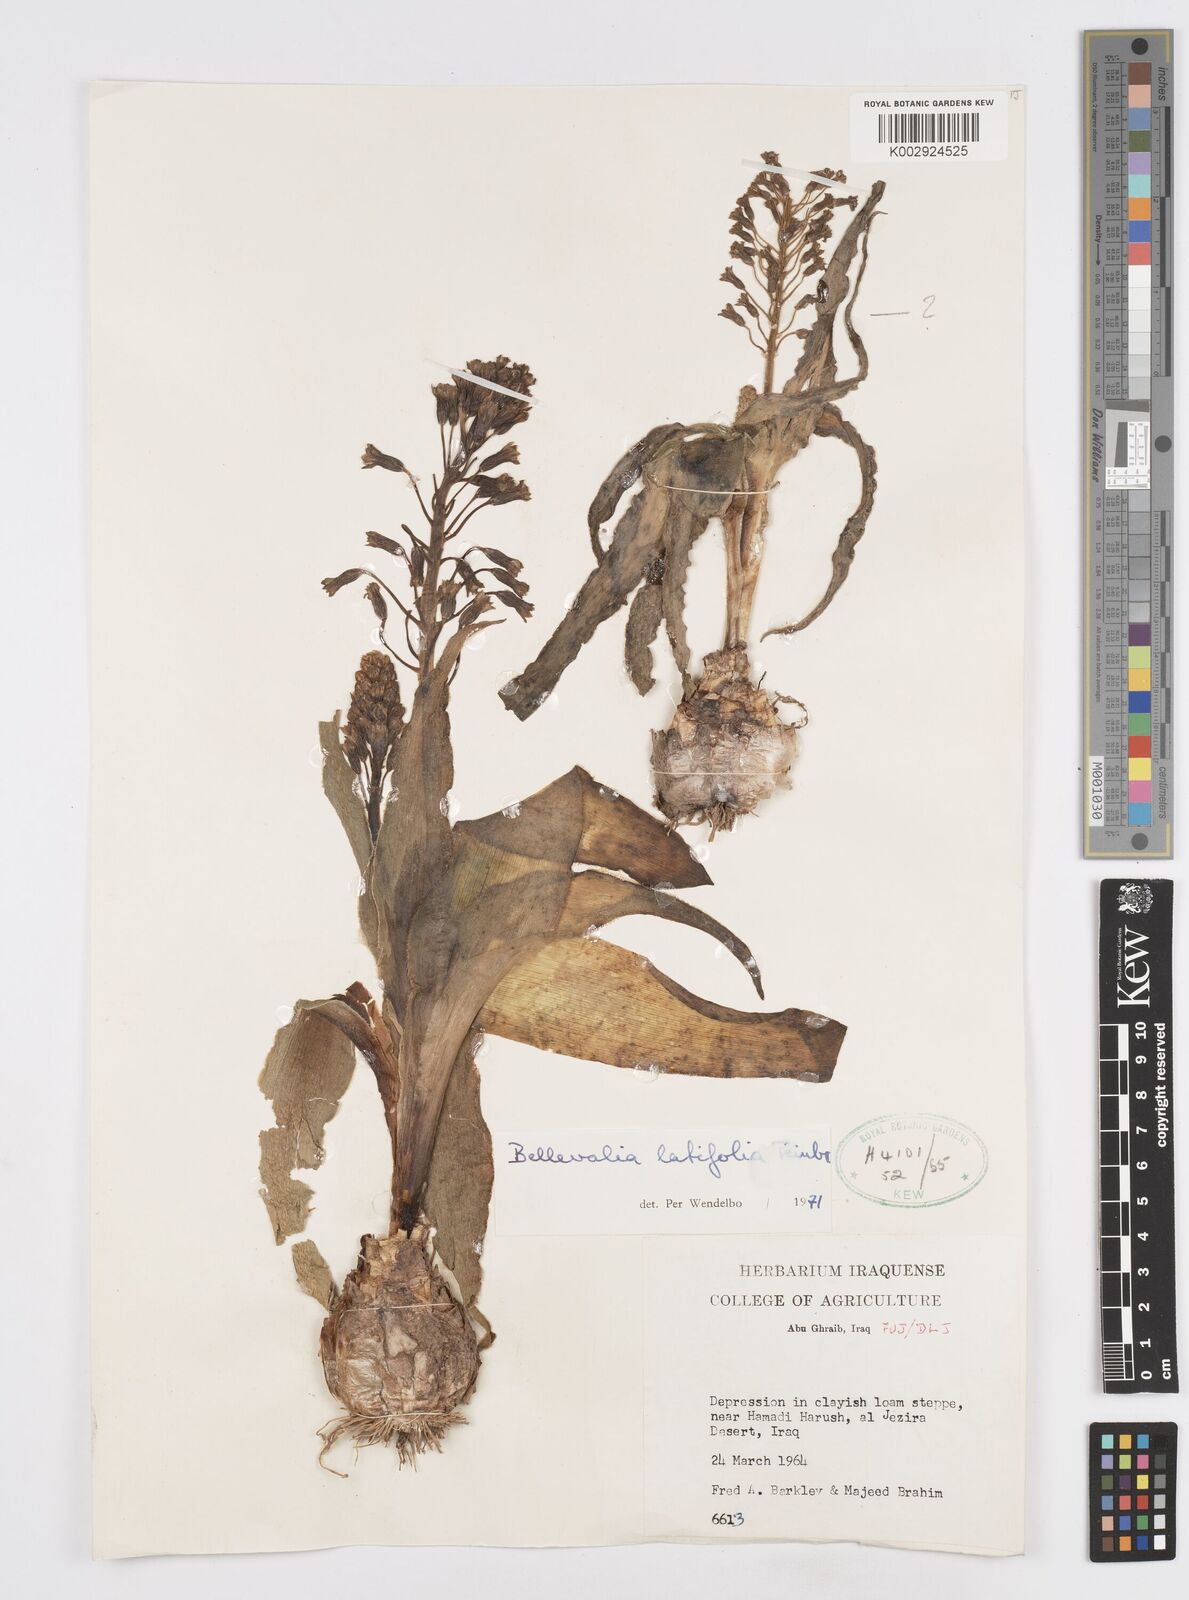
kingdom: Plantae
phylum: Tracheophyta
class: Liliopsida
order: Asparagales
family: Asparagaceae
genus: Bellevalia
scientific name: Bellevalia olivieri
